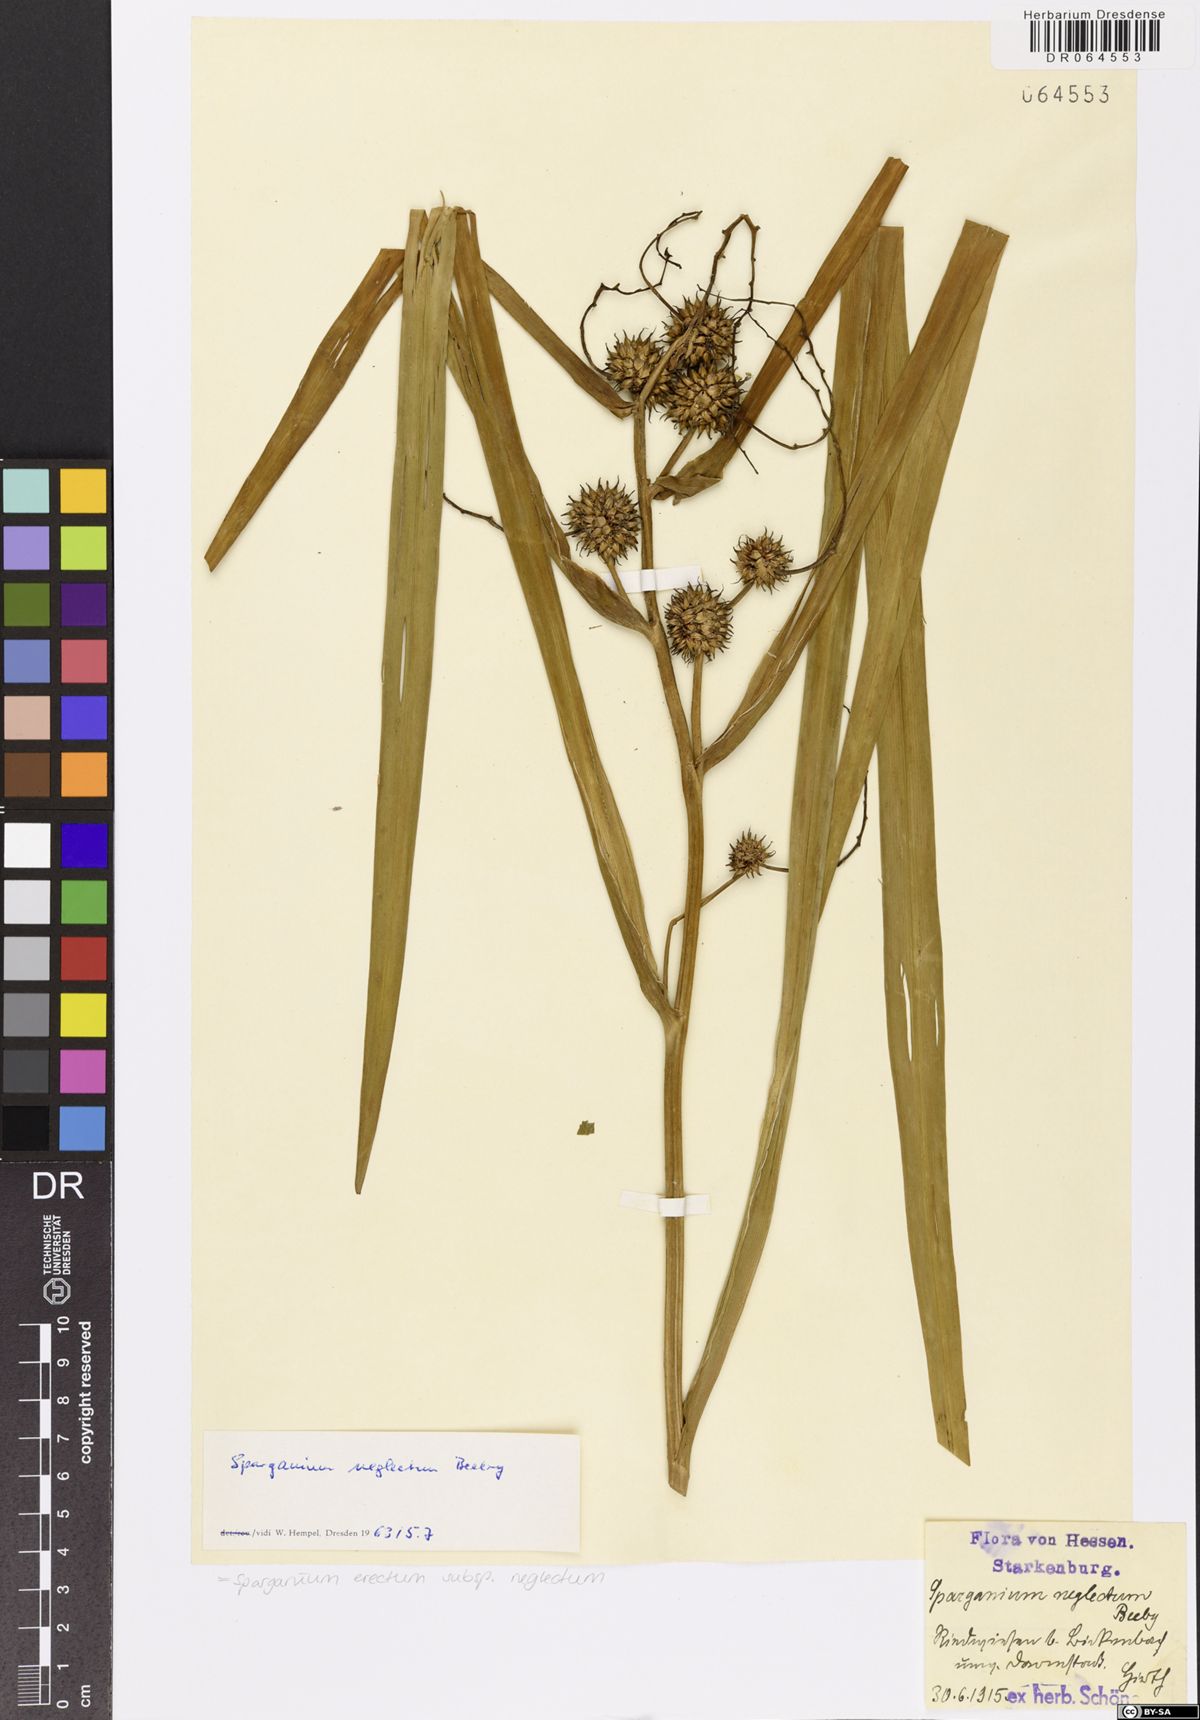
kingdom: Plantae
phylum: Tracheophyta
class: Liliopsida
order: Poales
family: Typhaceae
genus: Sparganium
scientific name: Sparganium erectum
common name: Branched bur-reed
